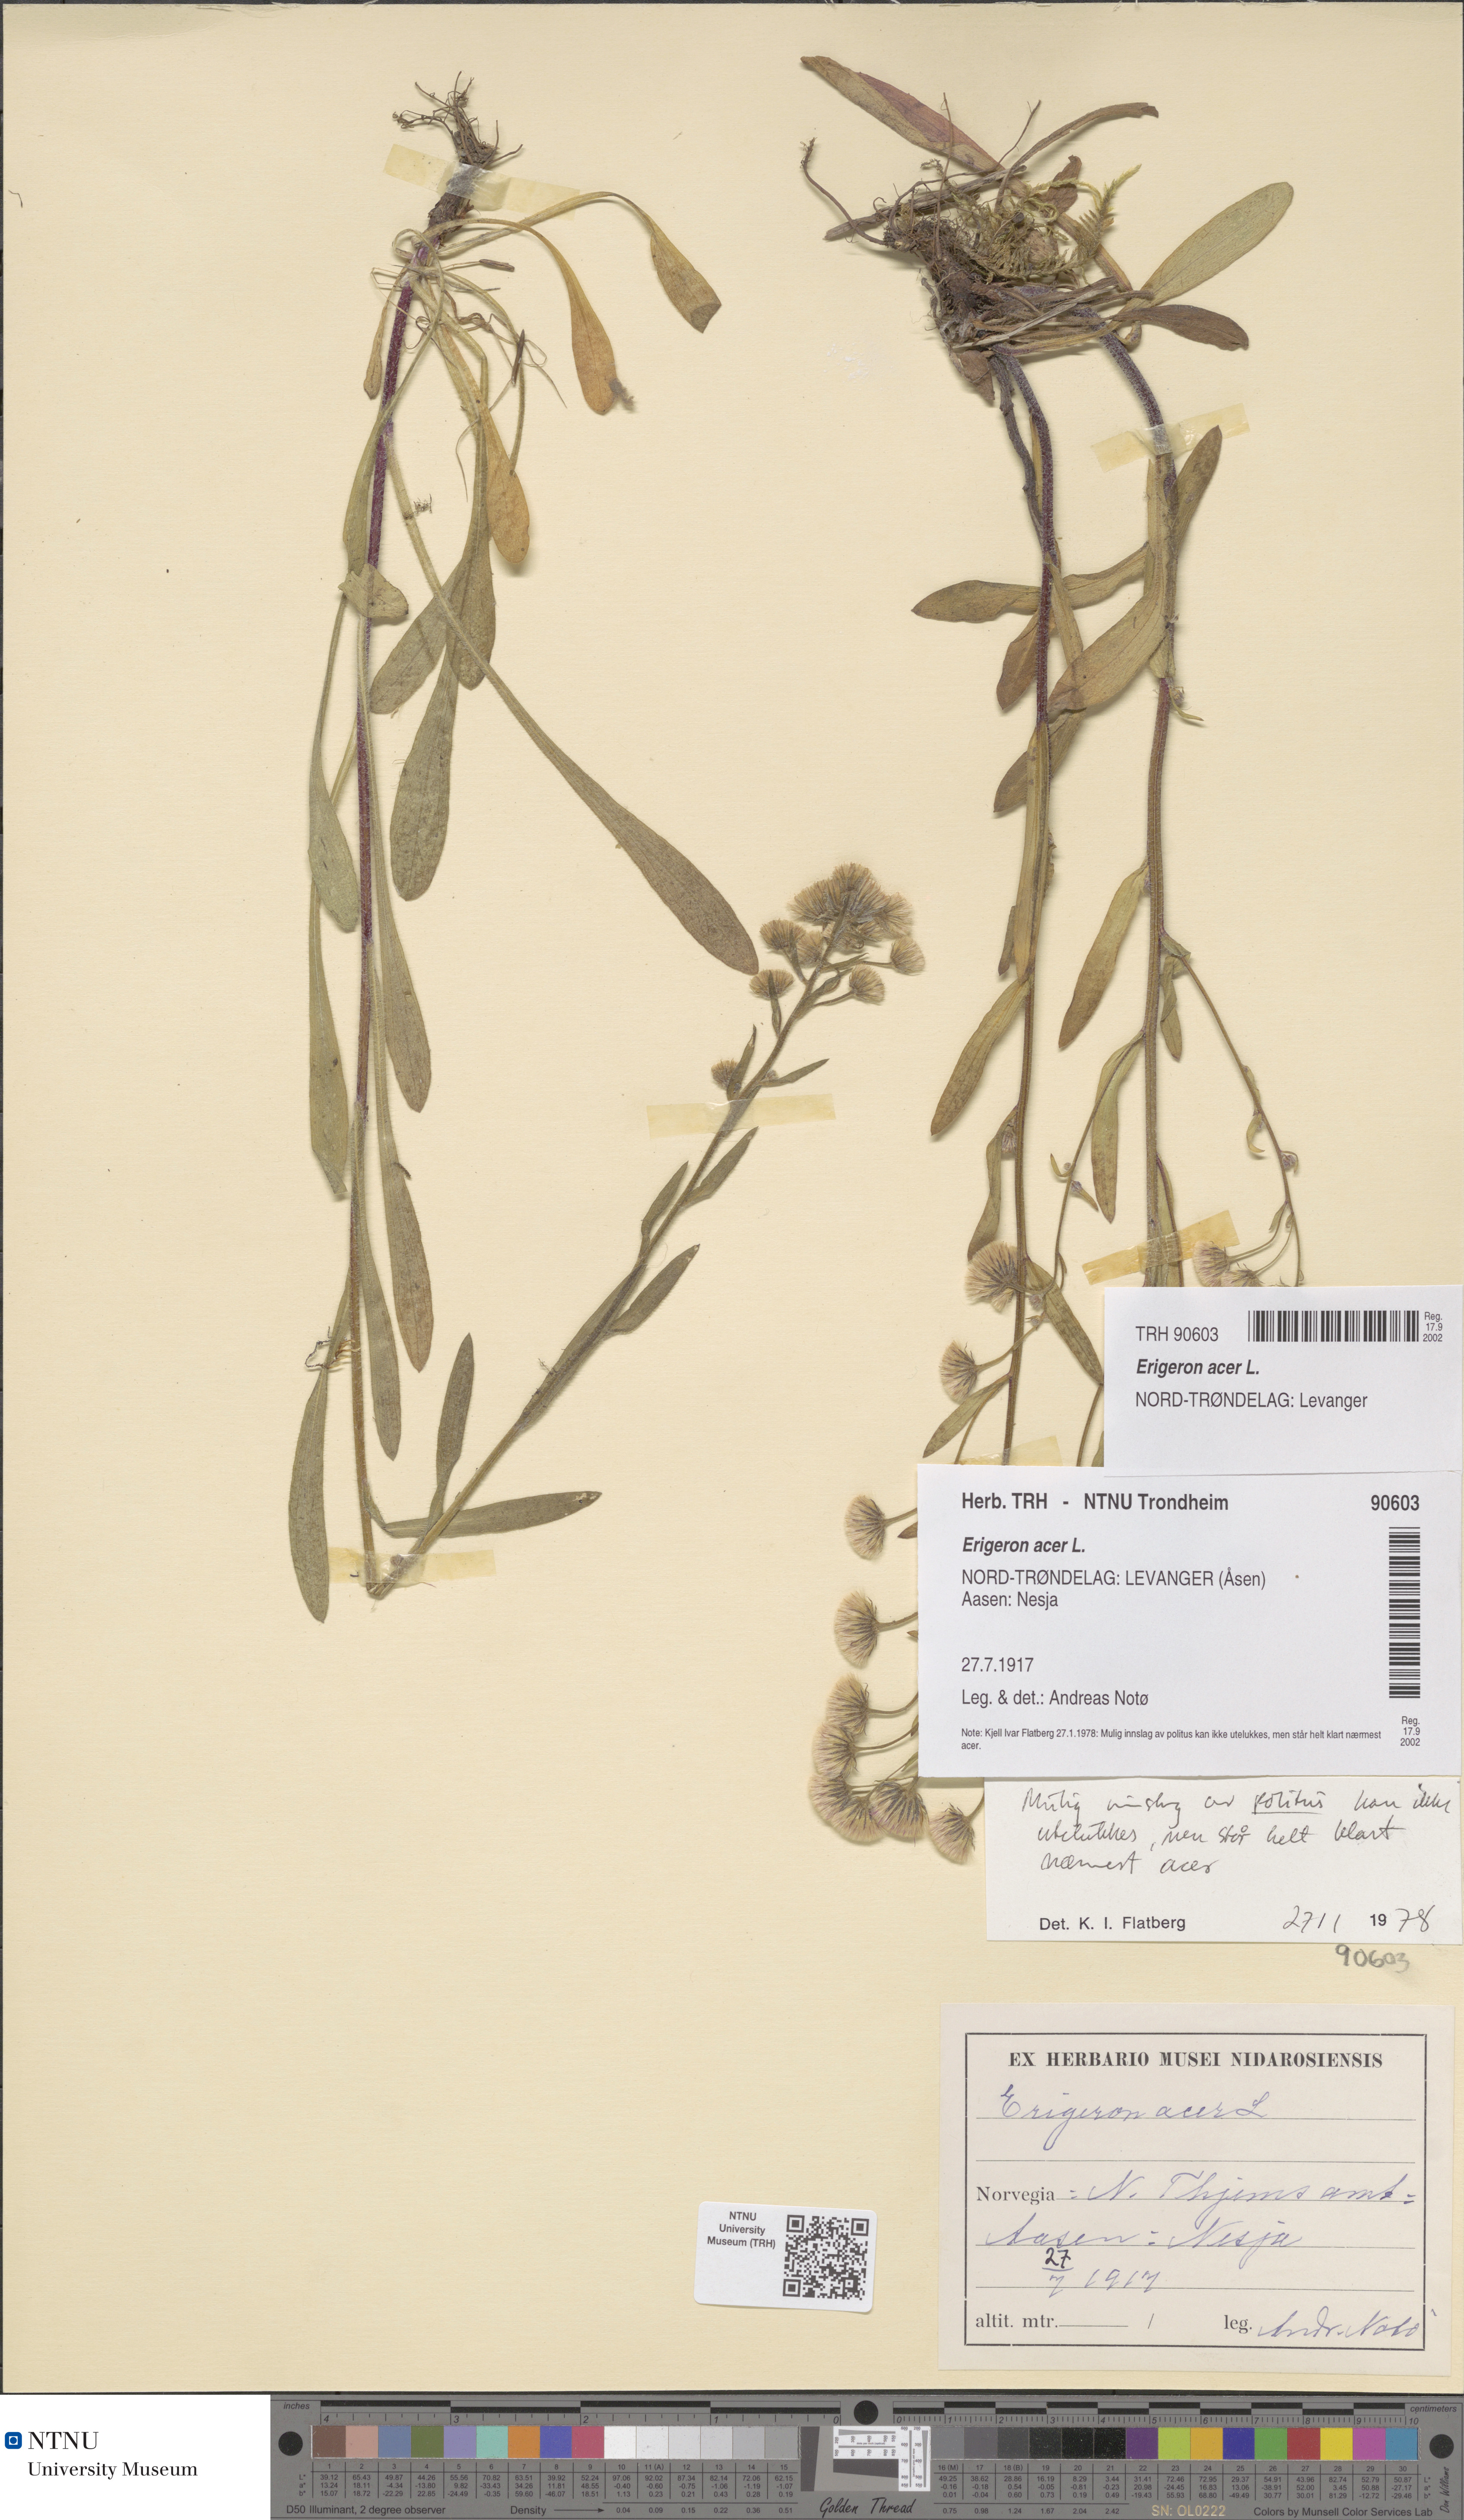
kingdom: Plantae
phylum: Tracheophyta
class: Magnoliopsida
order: Asterales
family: Asteraceae
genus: Erigeron
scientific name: Erigeron acris
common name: Blue fleabane
